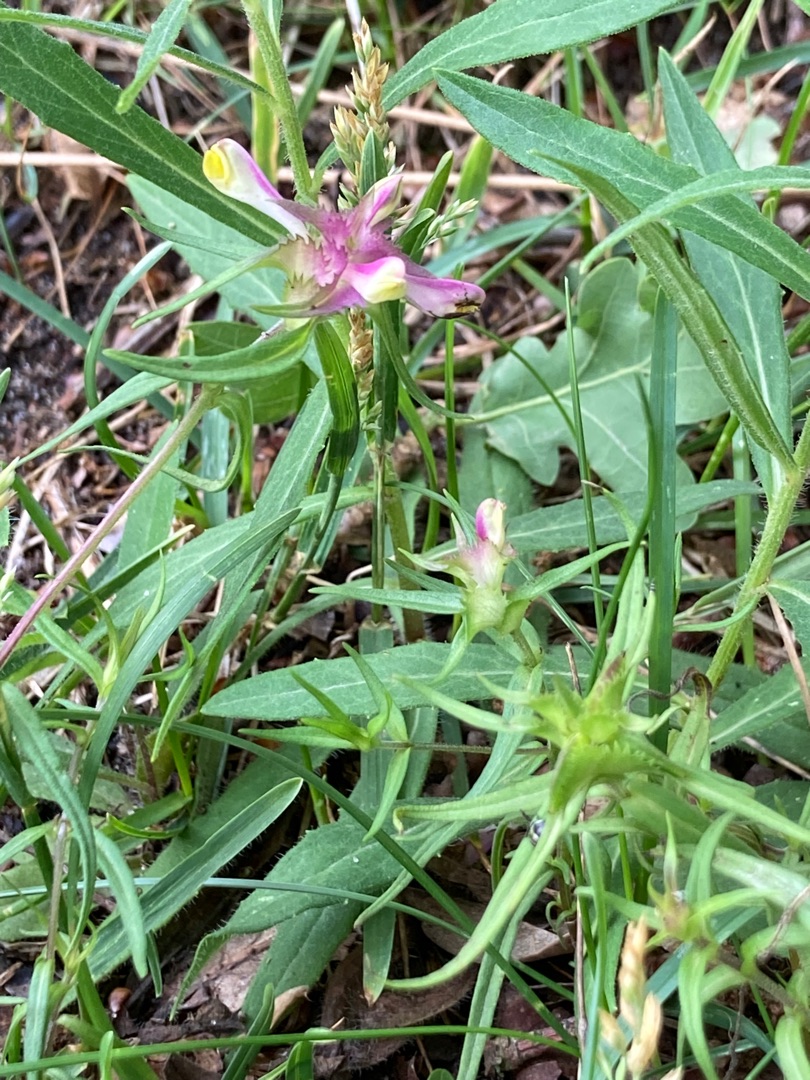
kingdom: Plantae
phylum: Tracheophyta
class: Magnoliopsida
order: Lamiales
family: Orobanchaceae
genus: Melampyrum
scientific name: Melampyrum cristatum
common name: Kantet kohvede
